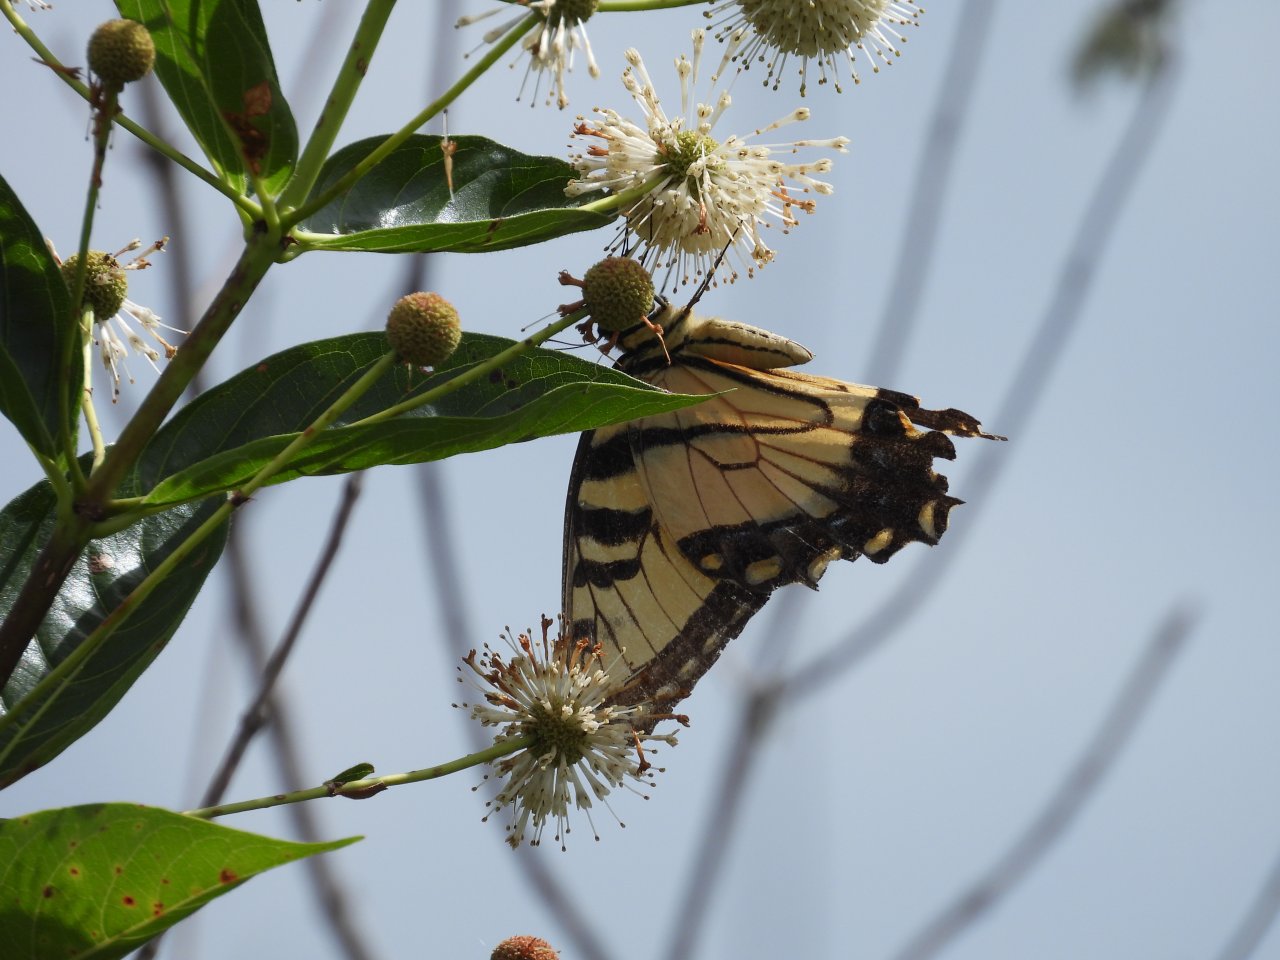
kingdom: Animalia
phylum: Arthropoda
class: Insecta
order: Lepidoptera
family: Papilionidae
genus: Pterourus
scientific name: Pterourus glaucus
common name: Eastern Tiger Swallowtail
